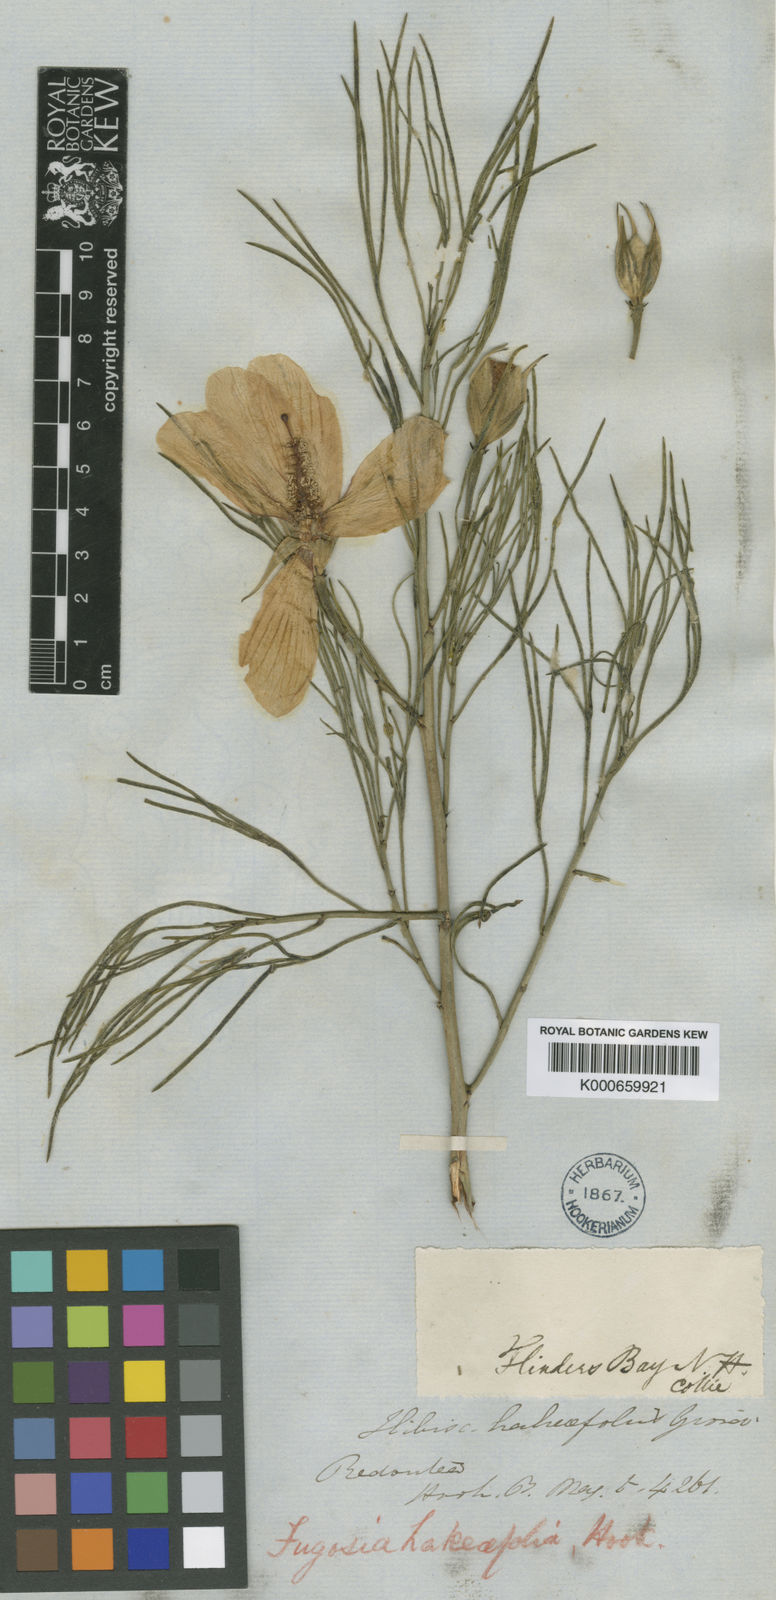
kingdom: Plantae
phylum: Tracheophyta
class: Magnoliopsida
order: Malvales
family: Malvaceae
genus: Hibiscus
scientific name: Hibiscus hakeifolius
